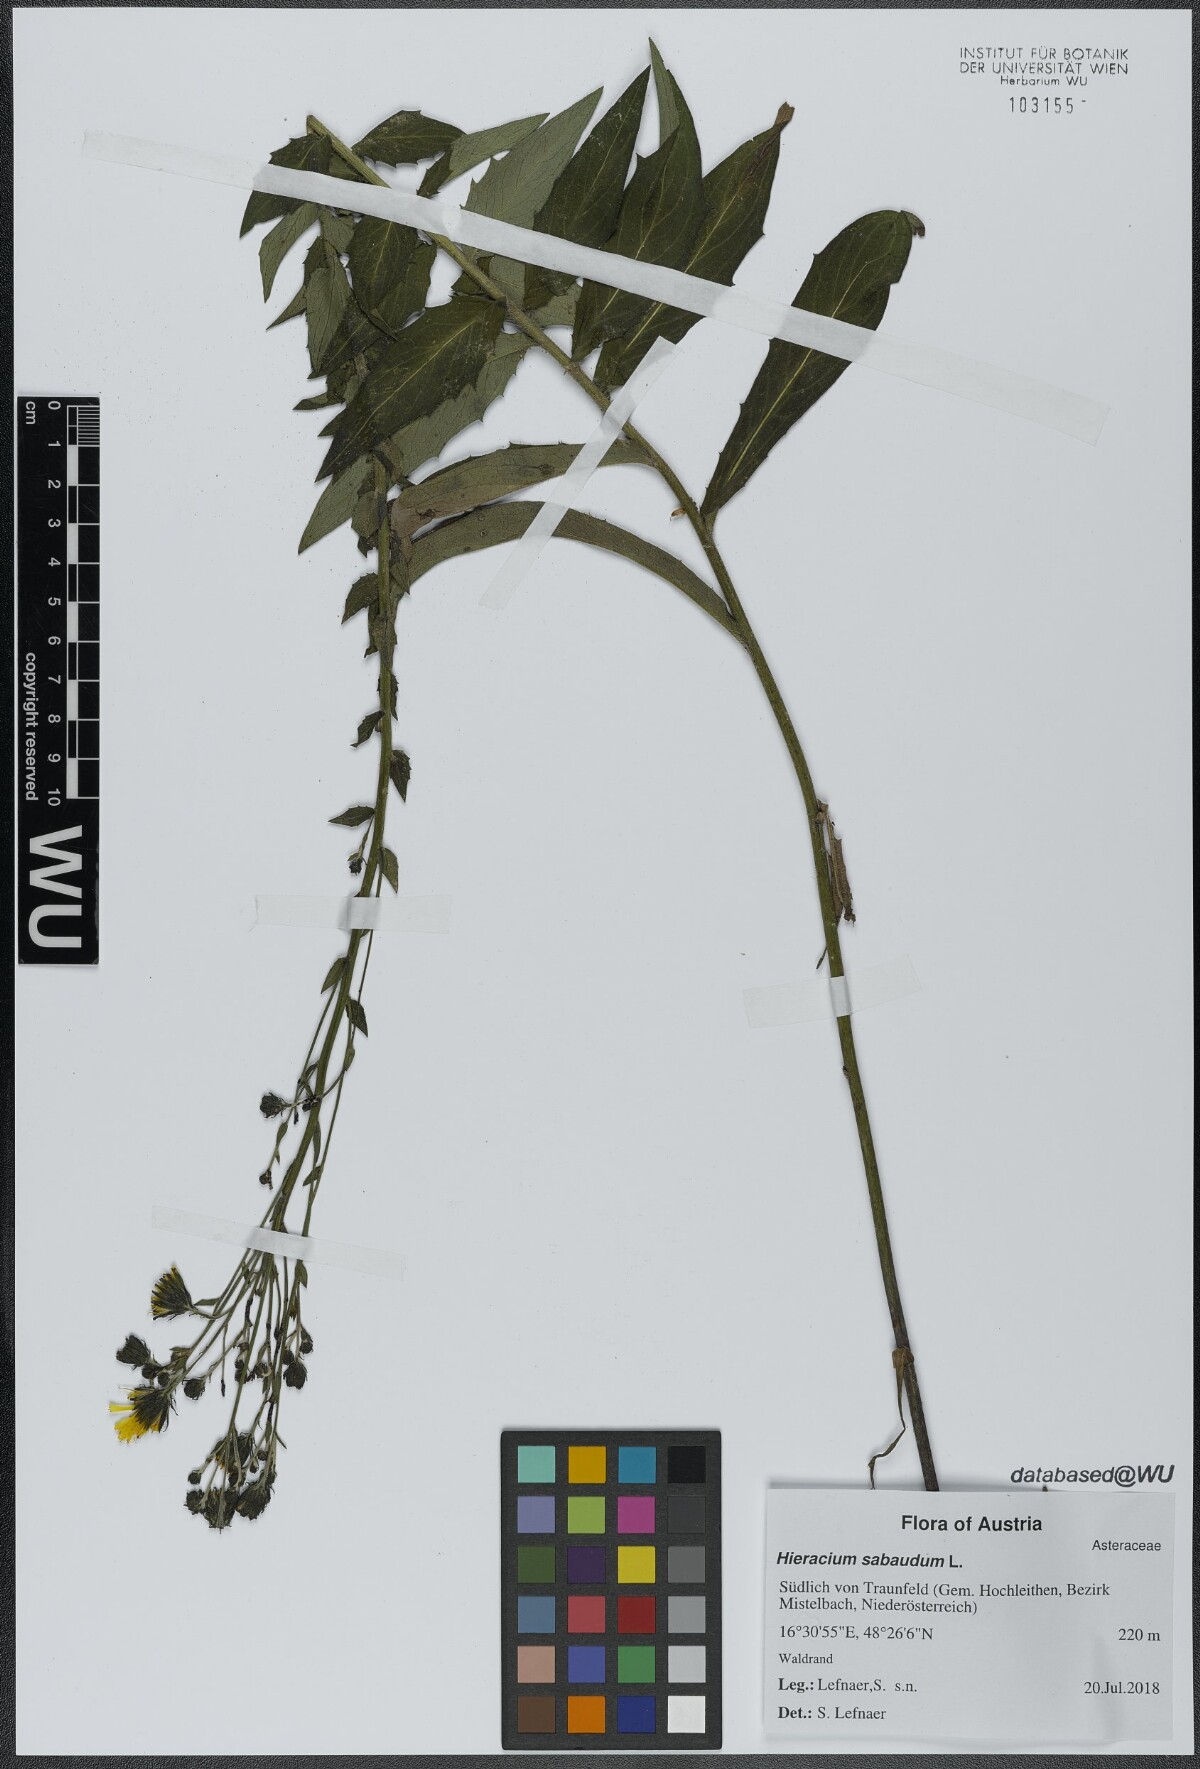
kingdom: Plantae
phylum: Tracheophyta
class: Magnoliopsida
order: Asterales
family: Asteraceae
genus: Hieracium
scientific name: Hieracium sabaudum
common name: New england hawkweed
